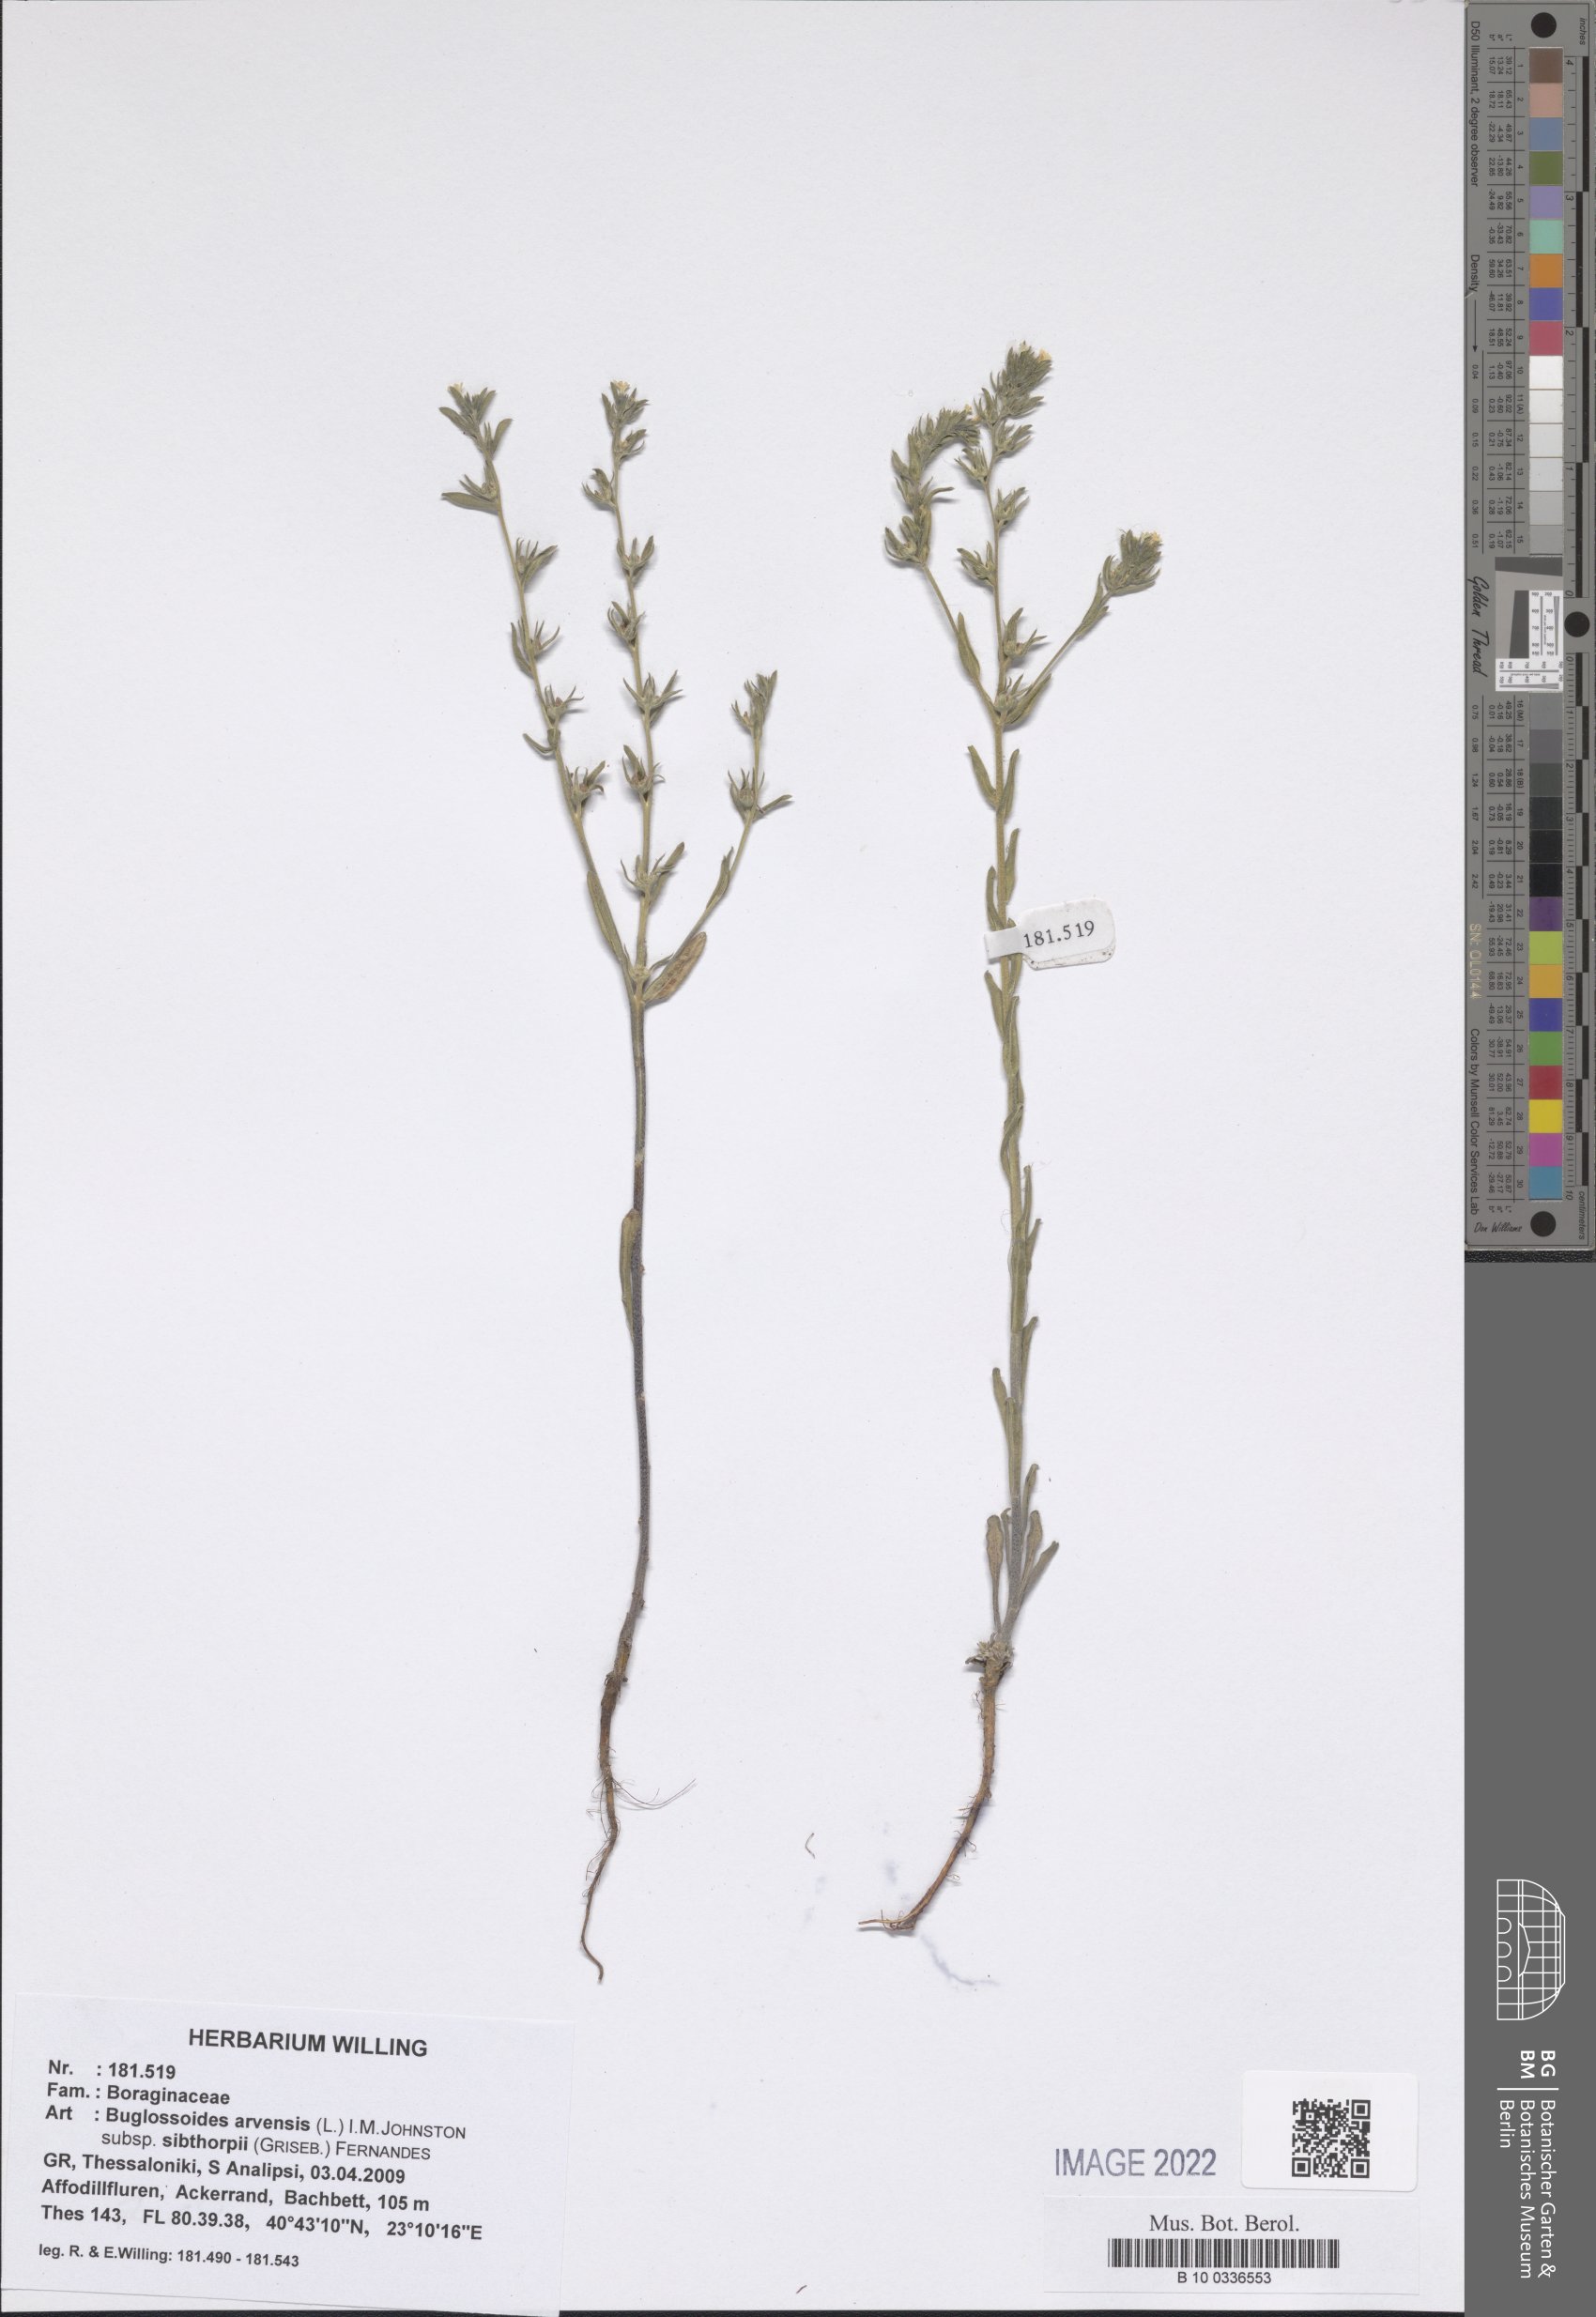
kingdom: Plantae
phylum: Tracheophyta
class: Magnoliopsida
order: Boraginales
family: Boraginaceae
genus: Buglossoides
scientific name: Buglossoides arvensis
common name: Corn gromwell
